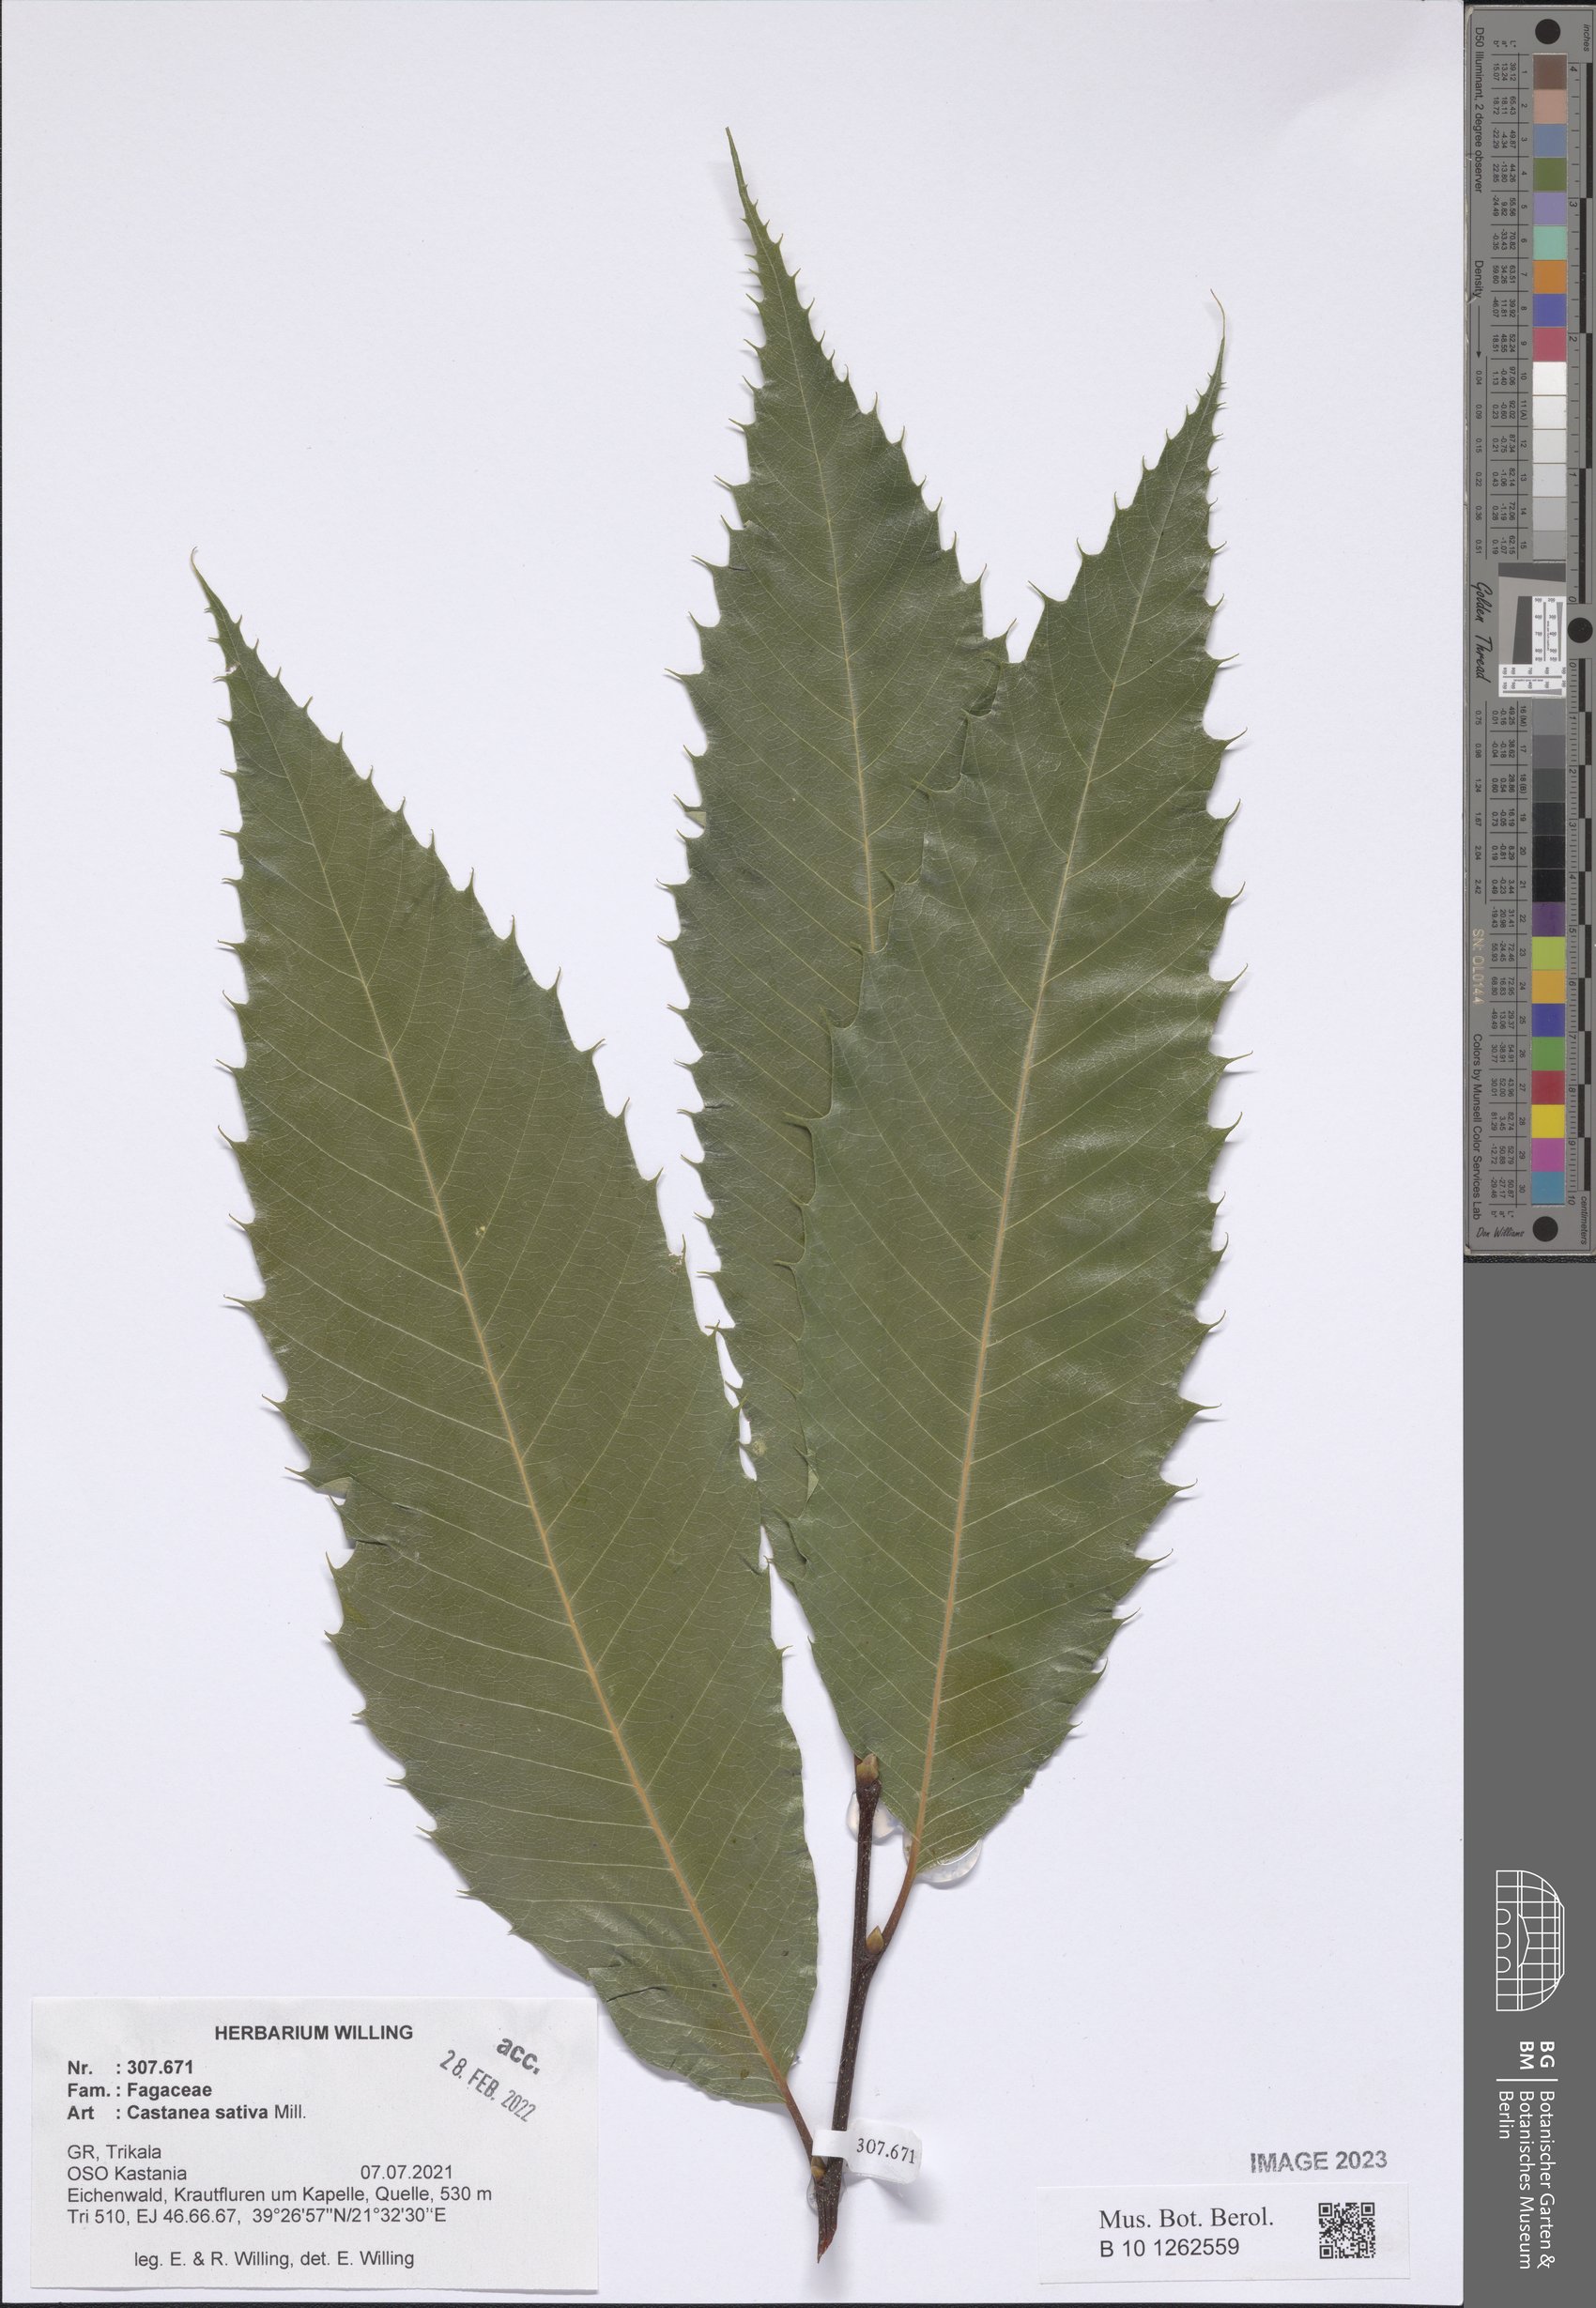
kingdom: Plantae
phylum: Tracheophyta
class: Magnoliopsida
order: Fagales
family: Fagaceae
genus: Castanea
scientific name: Castanea sativa
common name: Sweet chestnut
